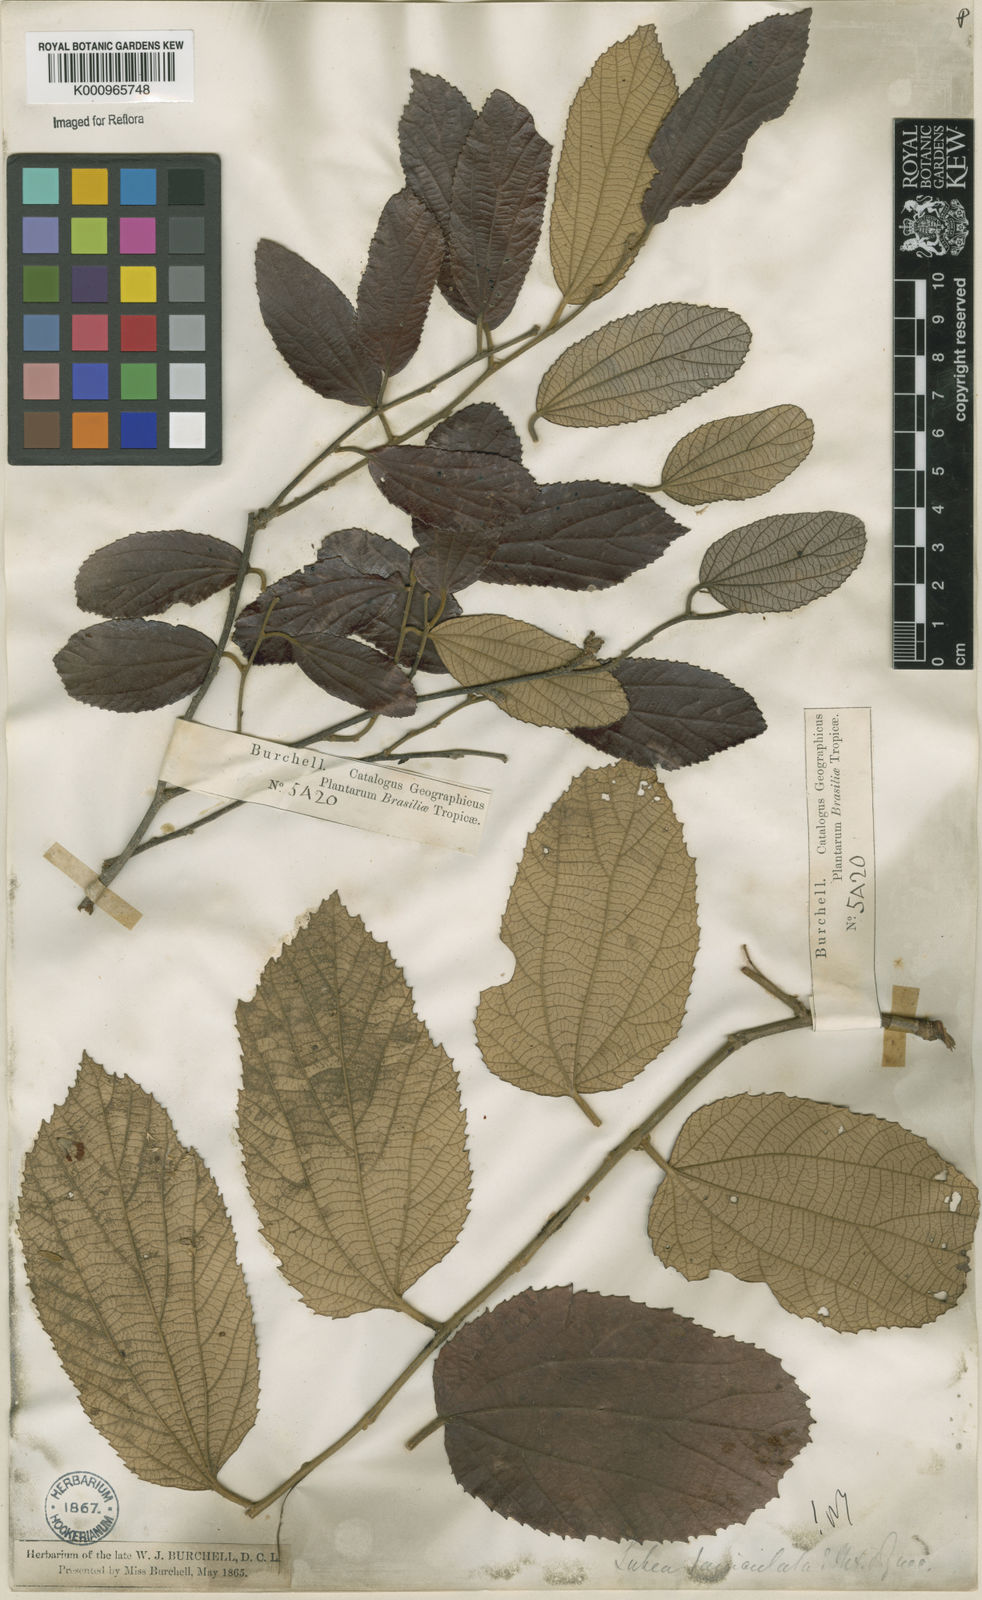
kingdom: Plantae
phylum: Tracheophyta
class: Magnoliopsida
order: Malvales
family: Malvaceae
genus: Luehea
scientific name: Luehea paniculata
